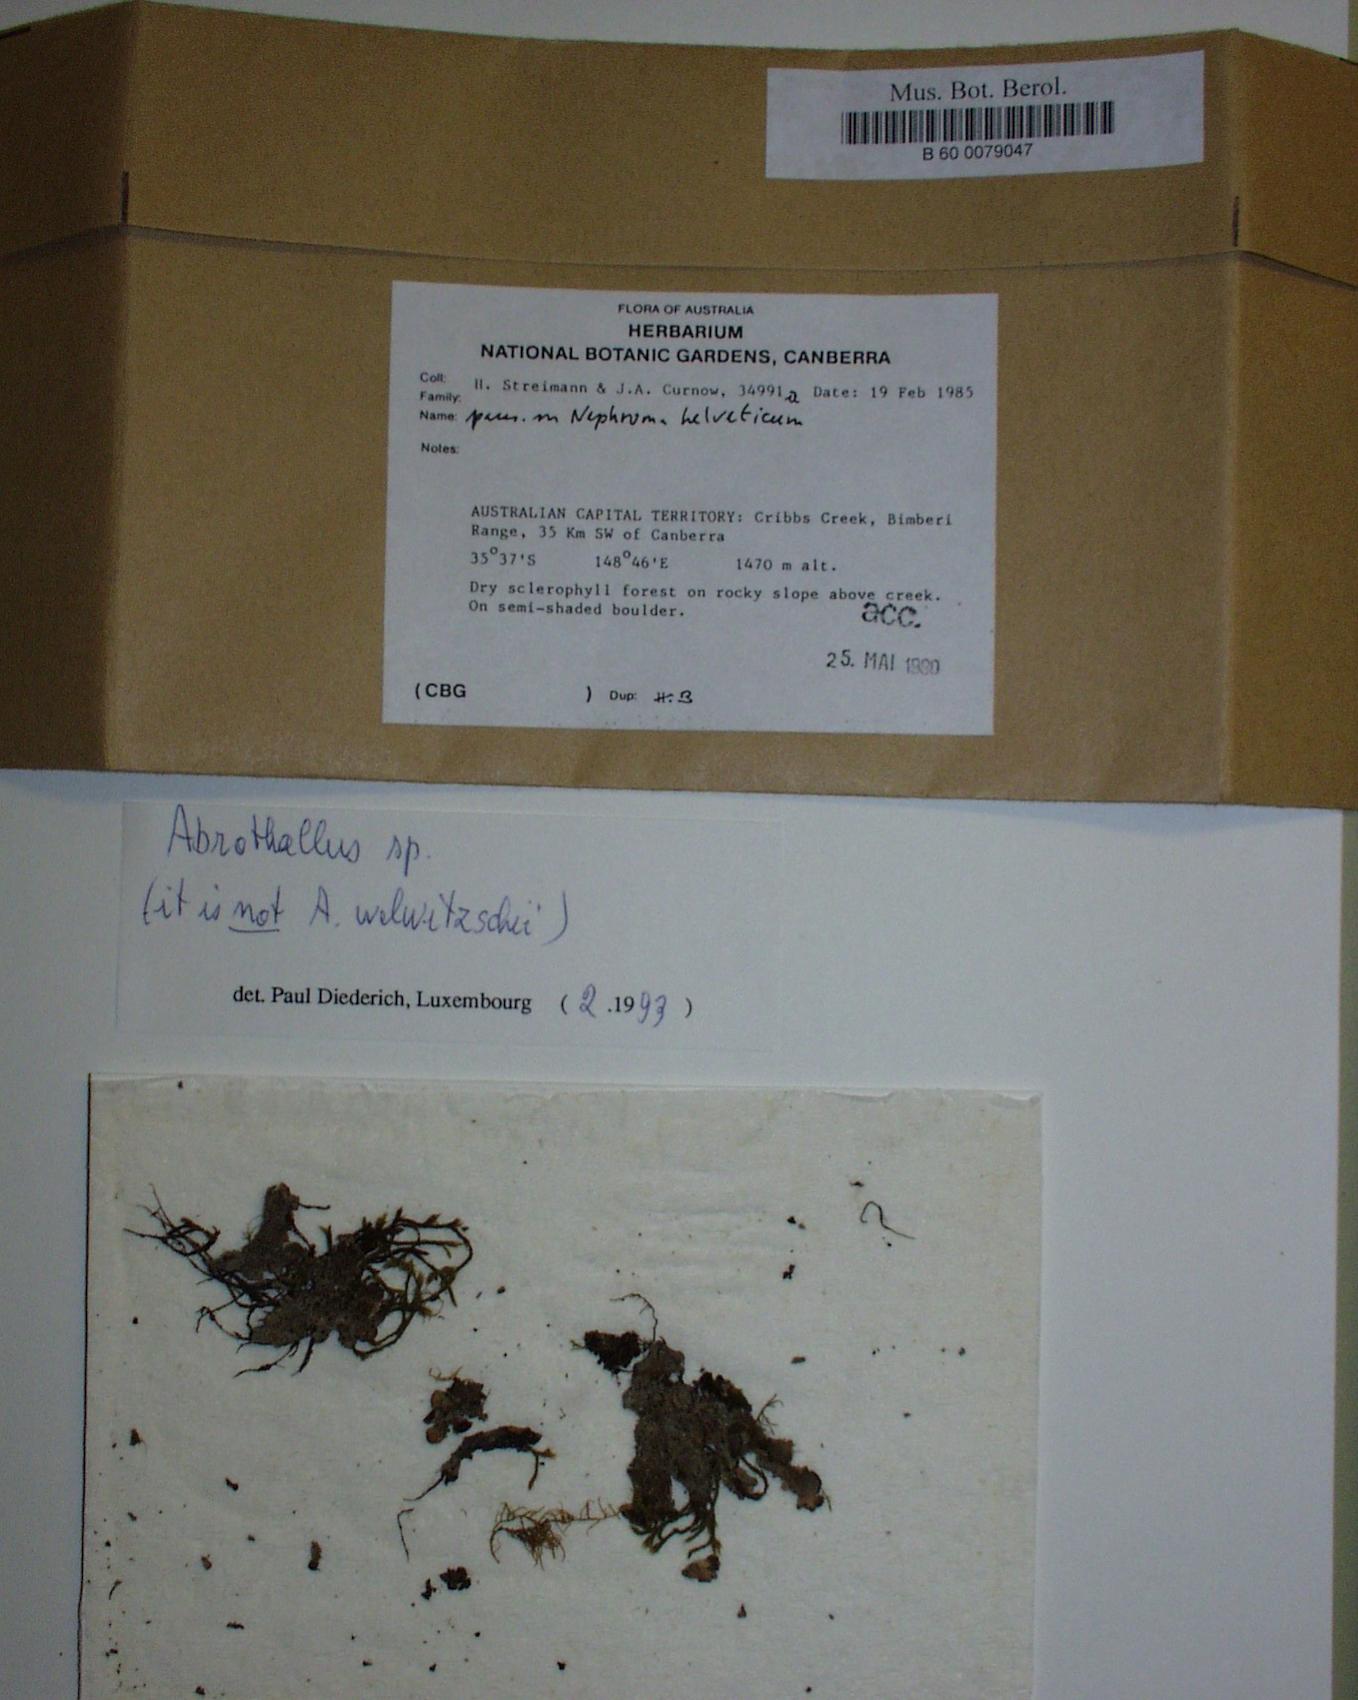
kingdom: Fungi
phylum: Ascomycota
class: Dothideomycetes
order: Pleosporales
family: Dacampiaceae
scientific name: Dacampiaceae
